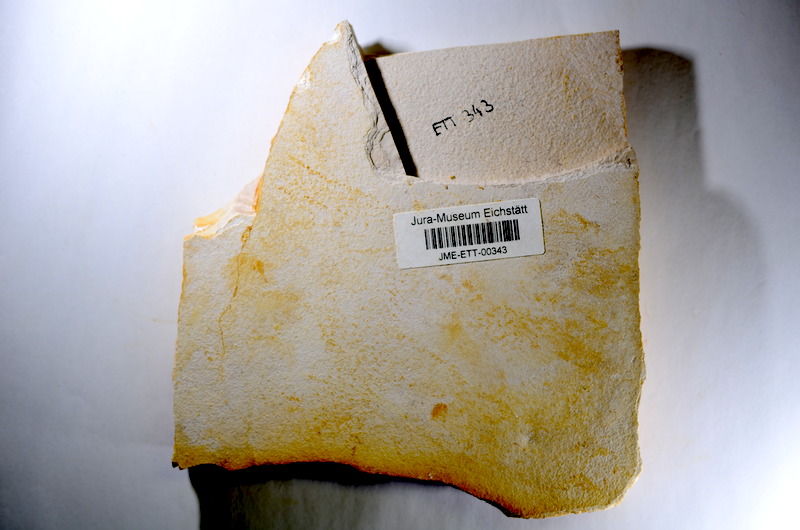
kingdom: Animalia
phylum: Chordata
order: Salmoniformes
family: Orthogonikleithridae
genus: Orthogonikleithrus
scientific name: Orthogonikleithrus hoelli
